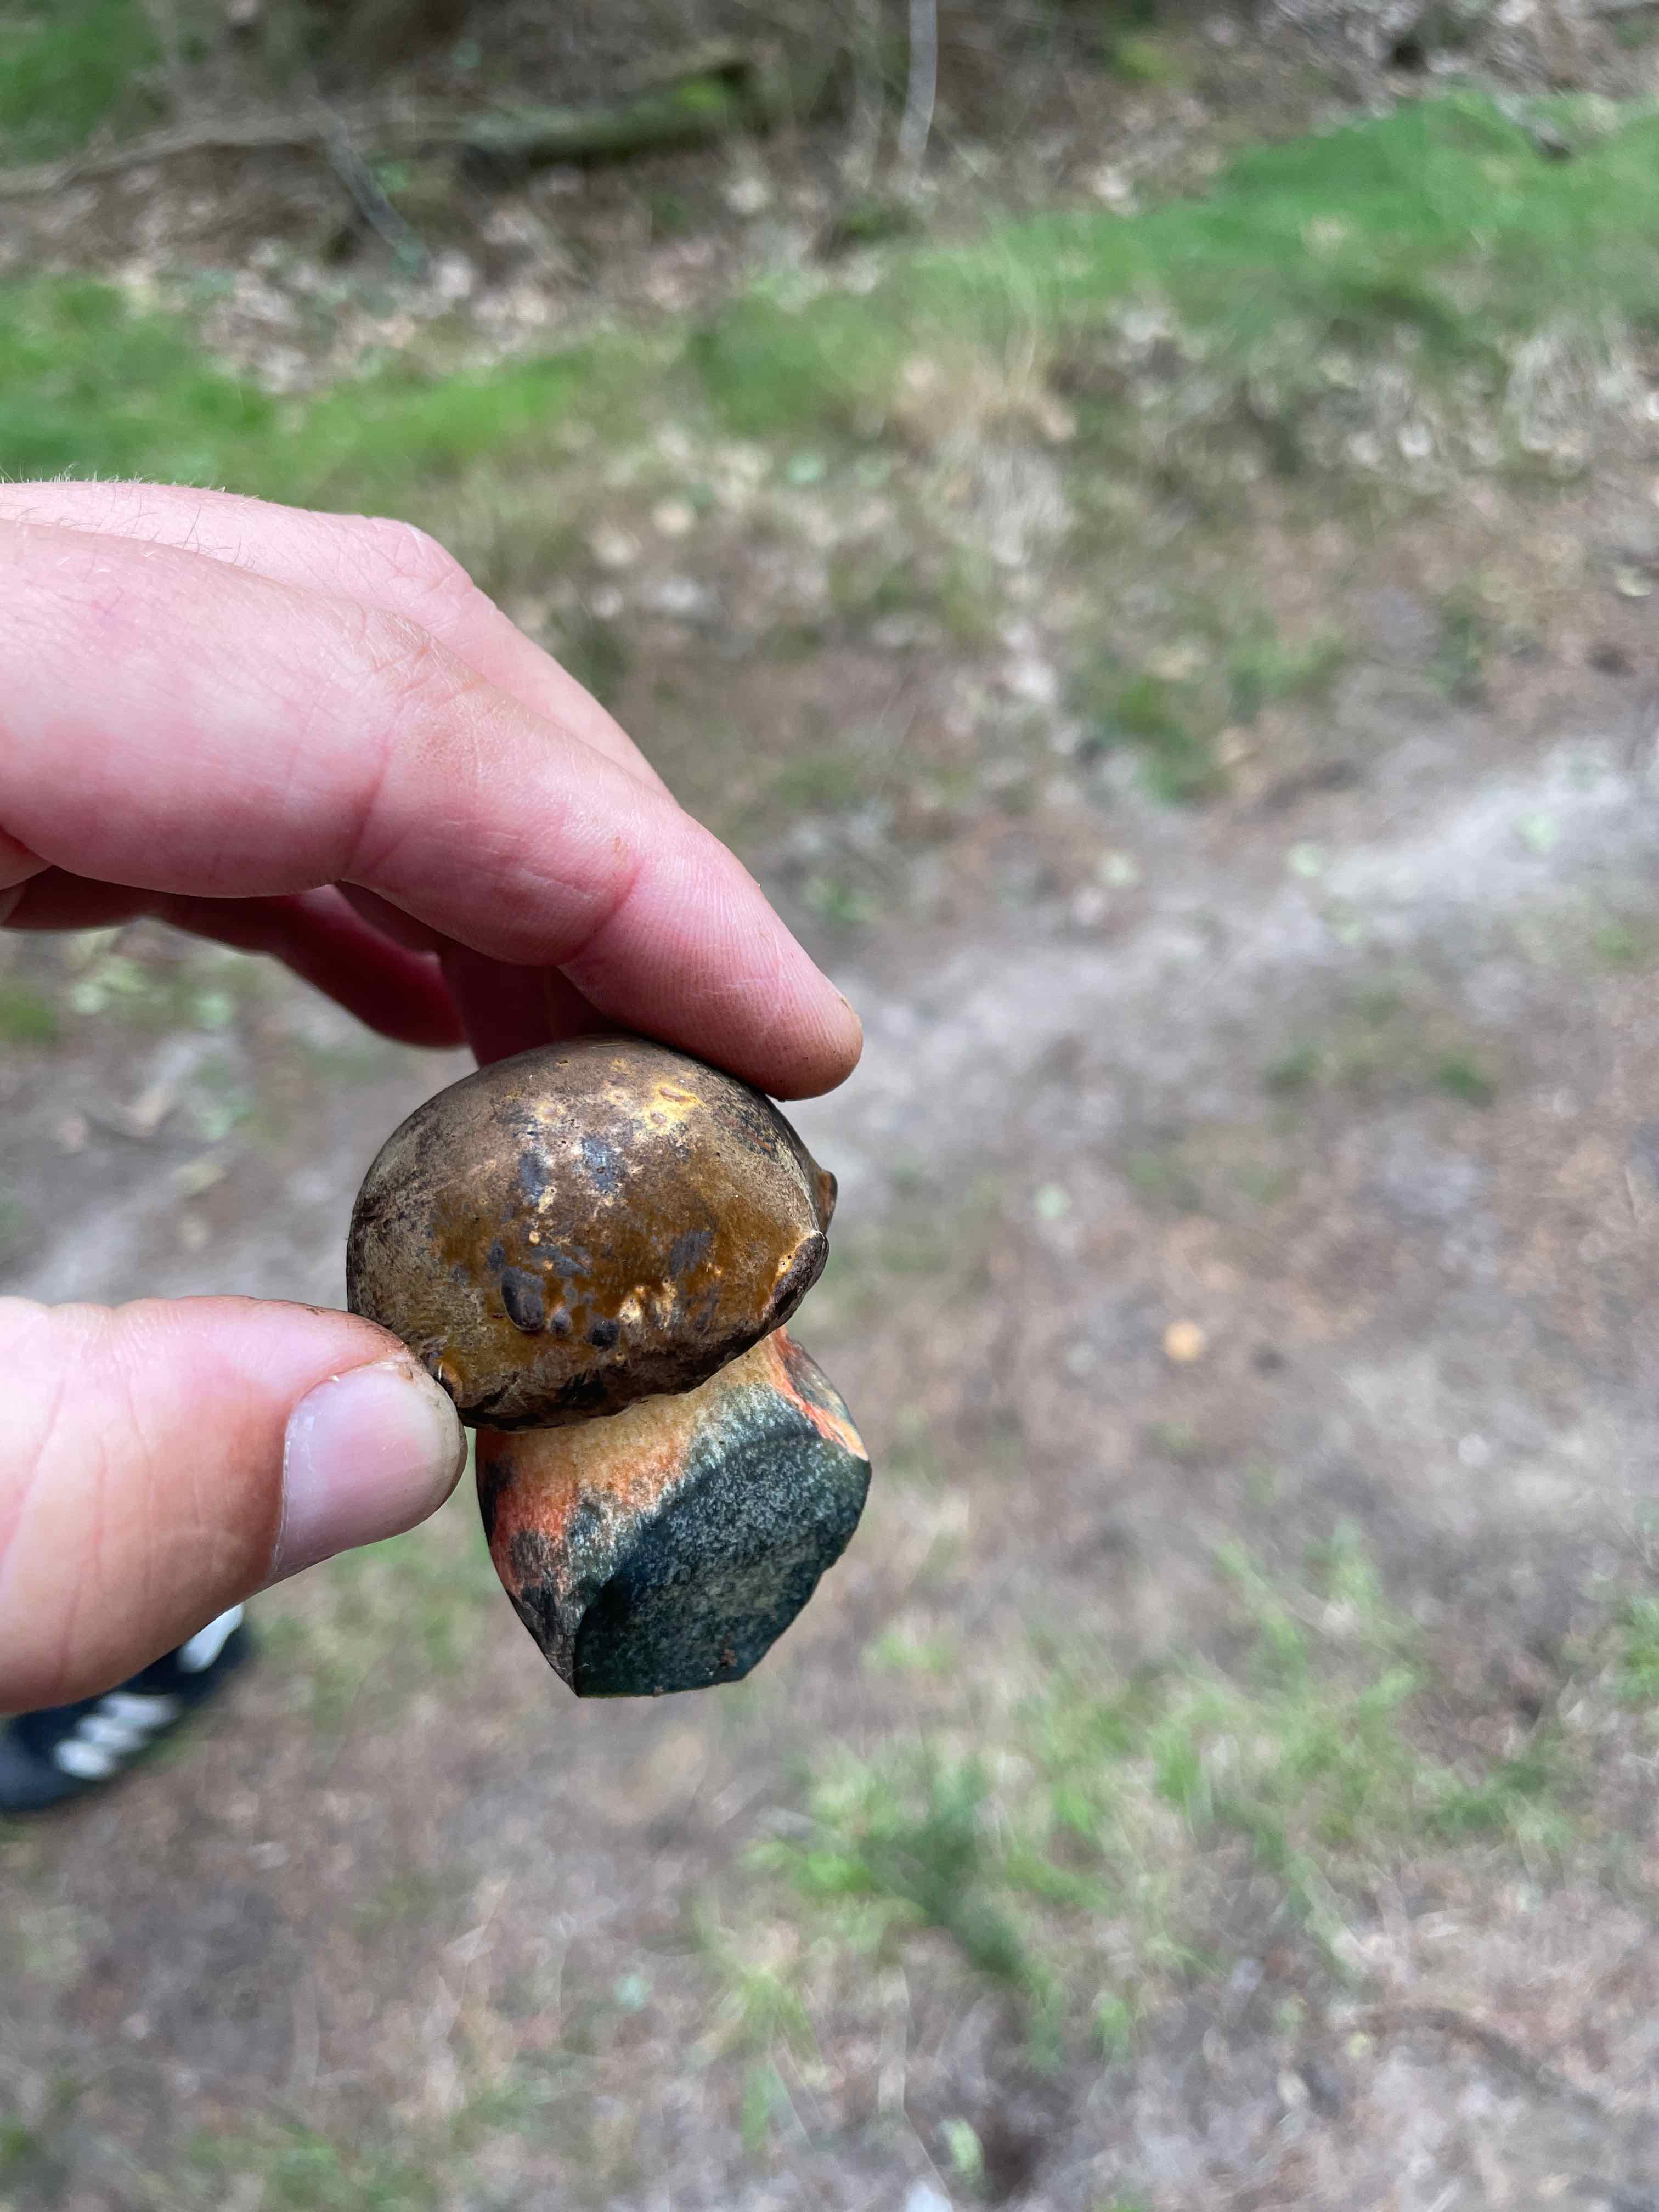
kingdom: Fungi
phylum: Basidiomycota
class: Agaricomycetes
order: Boletales
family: Boletaceae
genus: Neoboletus
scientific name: Neoboletus erythropus
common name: punktstokket indigorørhat
